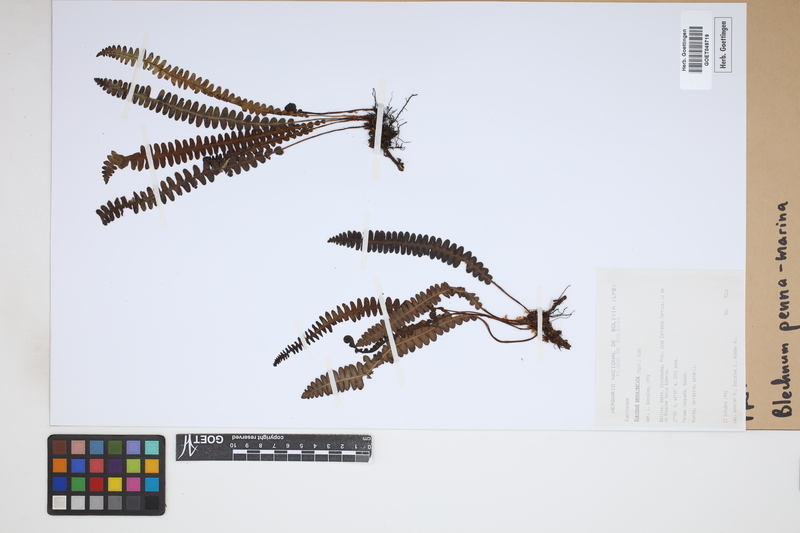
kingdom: Plantae
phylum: Tracheophyta
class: Polypodiopsida
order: Polypodiales
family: Blechnaceae
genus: Austroblechnum
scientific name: Austroblechnum penna-marina
